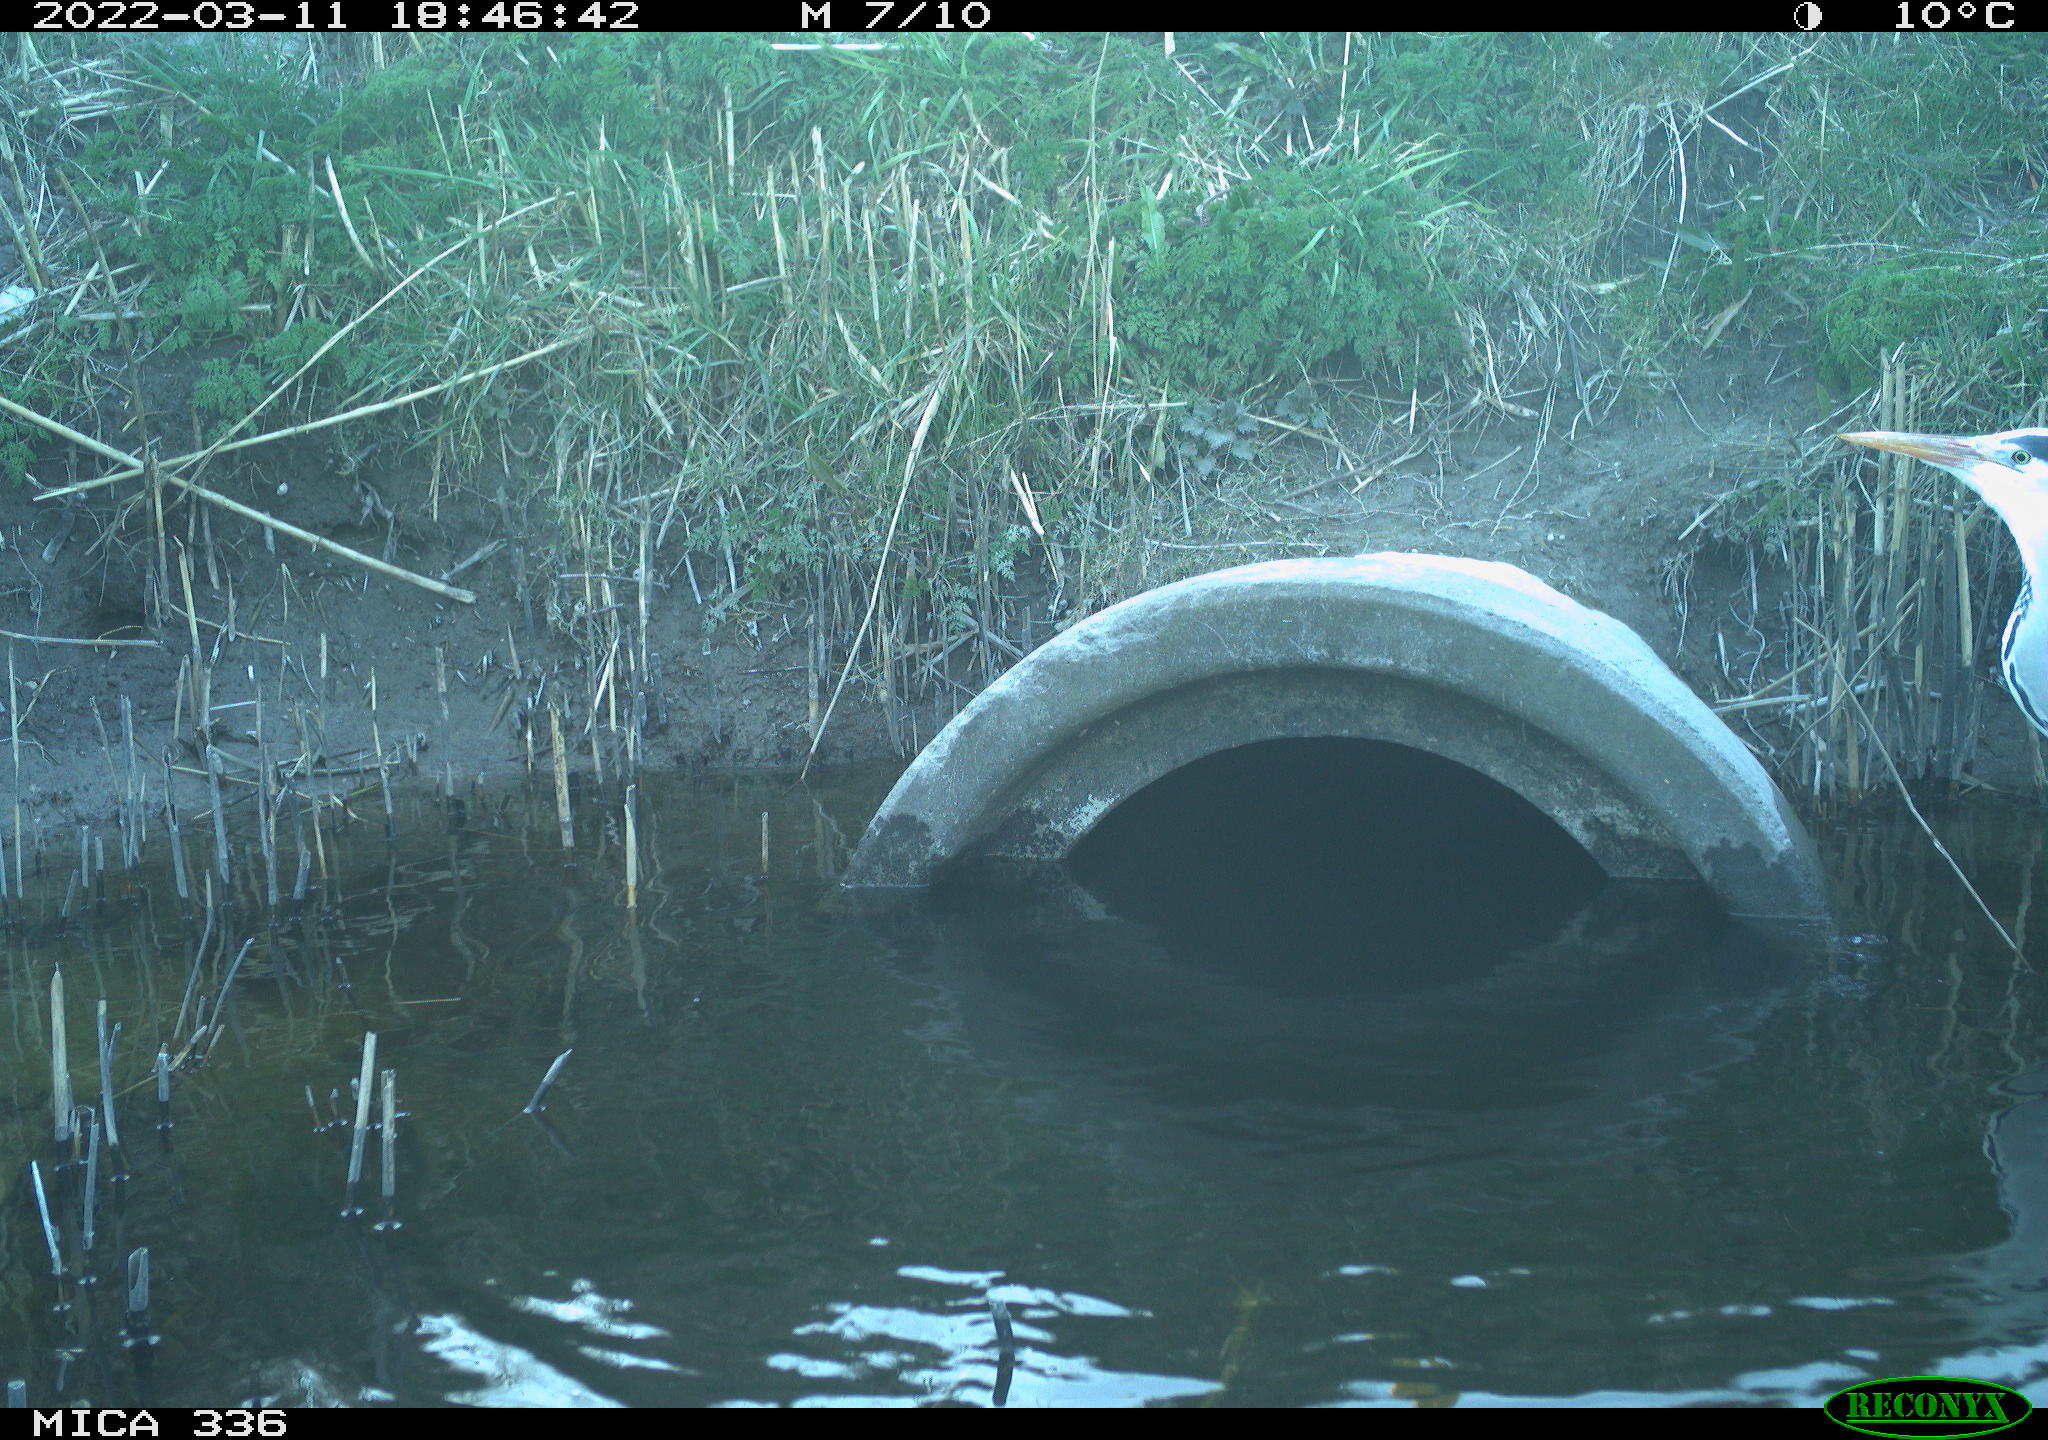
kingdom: Animalia
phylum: Chordata
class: Aves
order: Pelecaniformes
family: Ardeidae
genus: Ardea
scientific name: Ardea cinerea
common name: Grey heron
